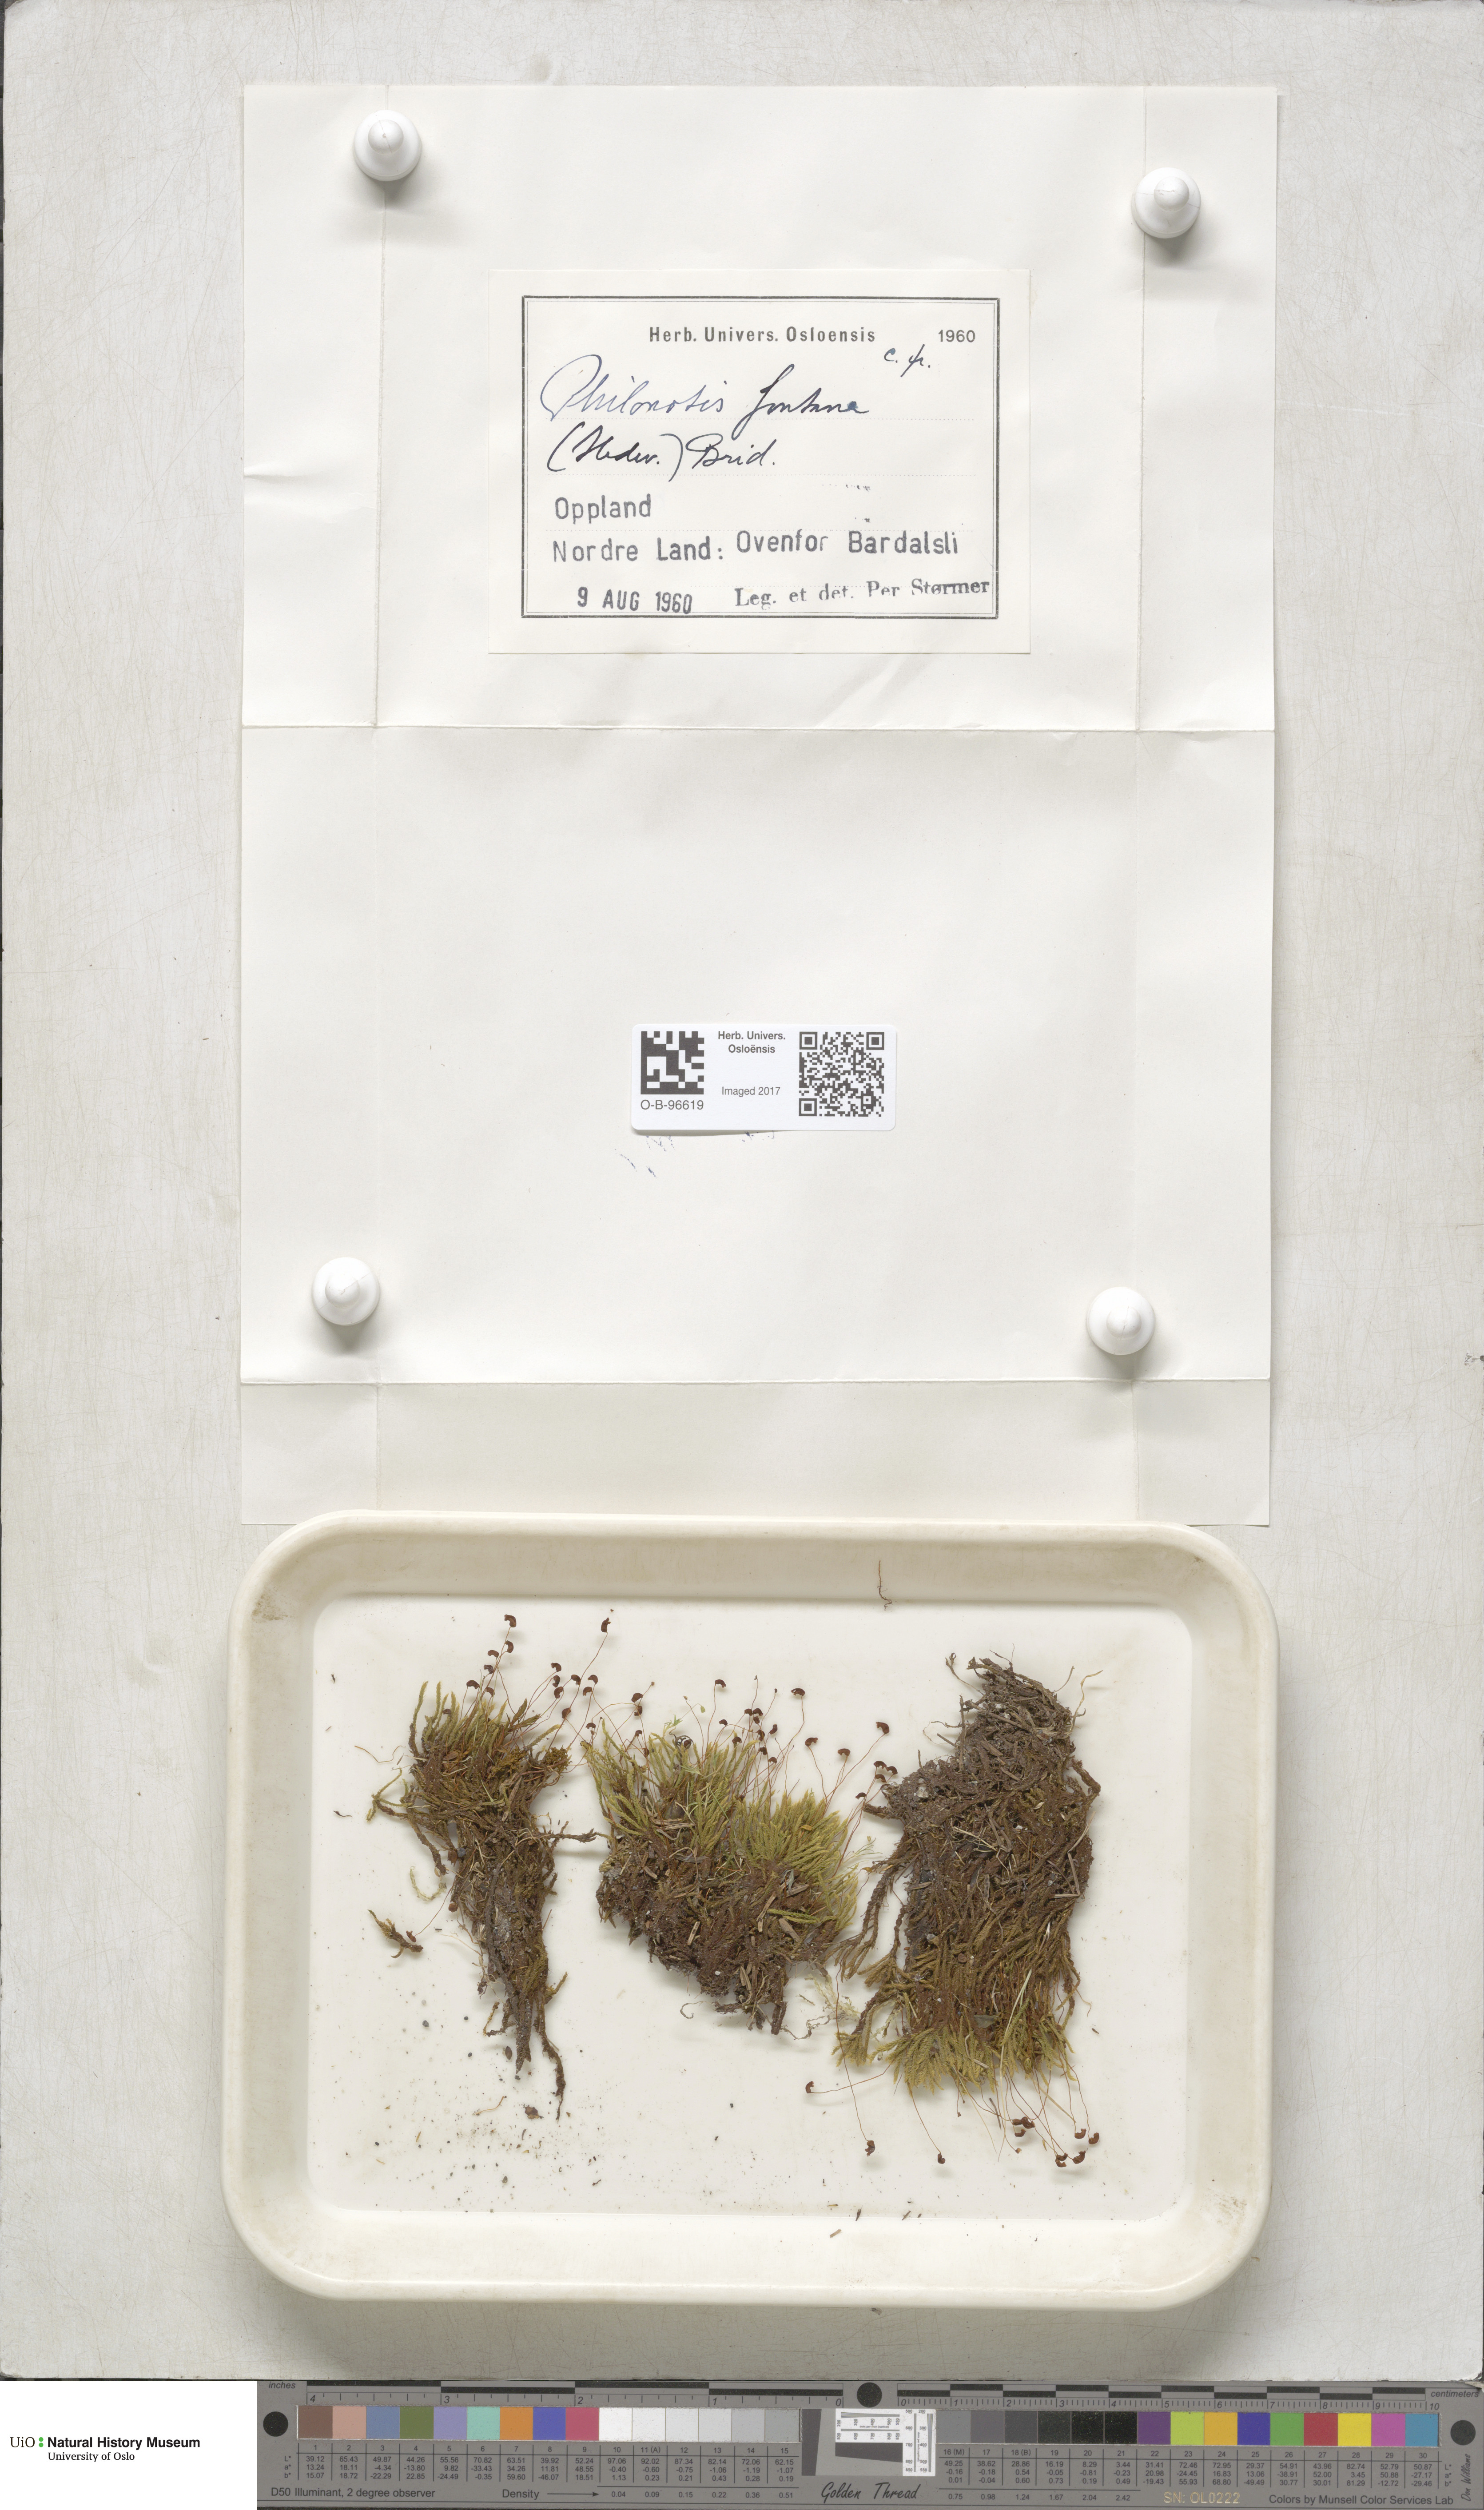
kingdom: Plantae
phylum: Bryophyta
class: Bryopsida
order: Bartramiales
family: Bartramiaceae
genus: Philonotis
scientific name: Philonotis fontana
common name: Fountain apple-moss
